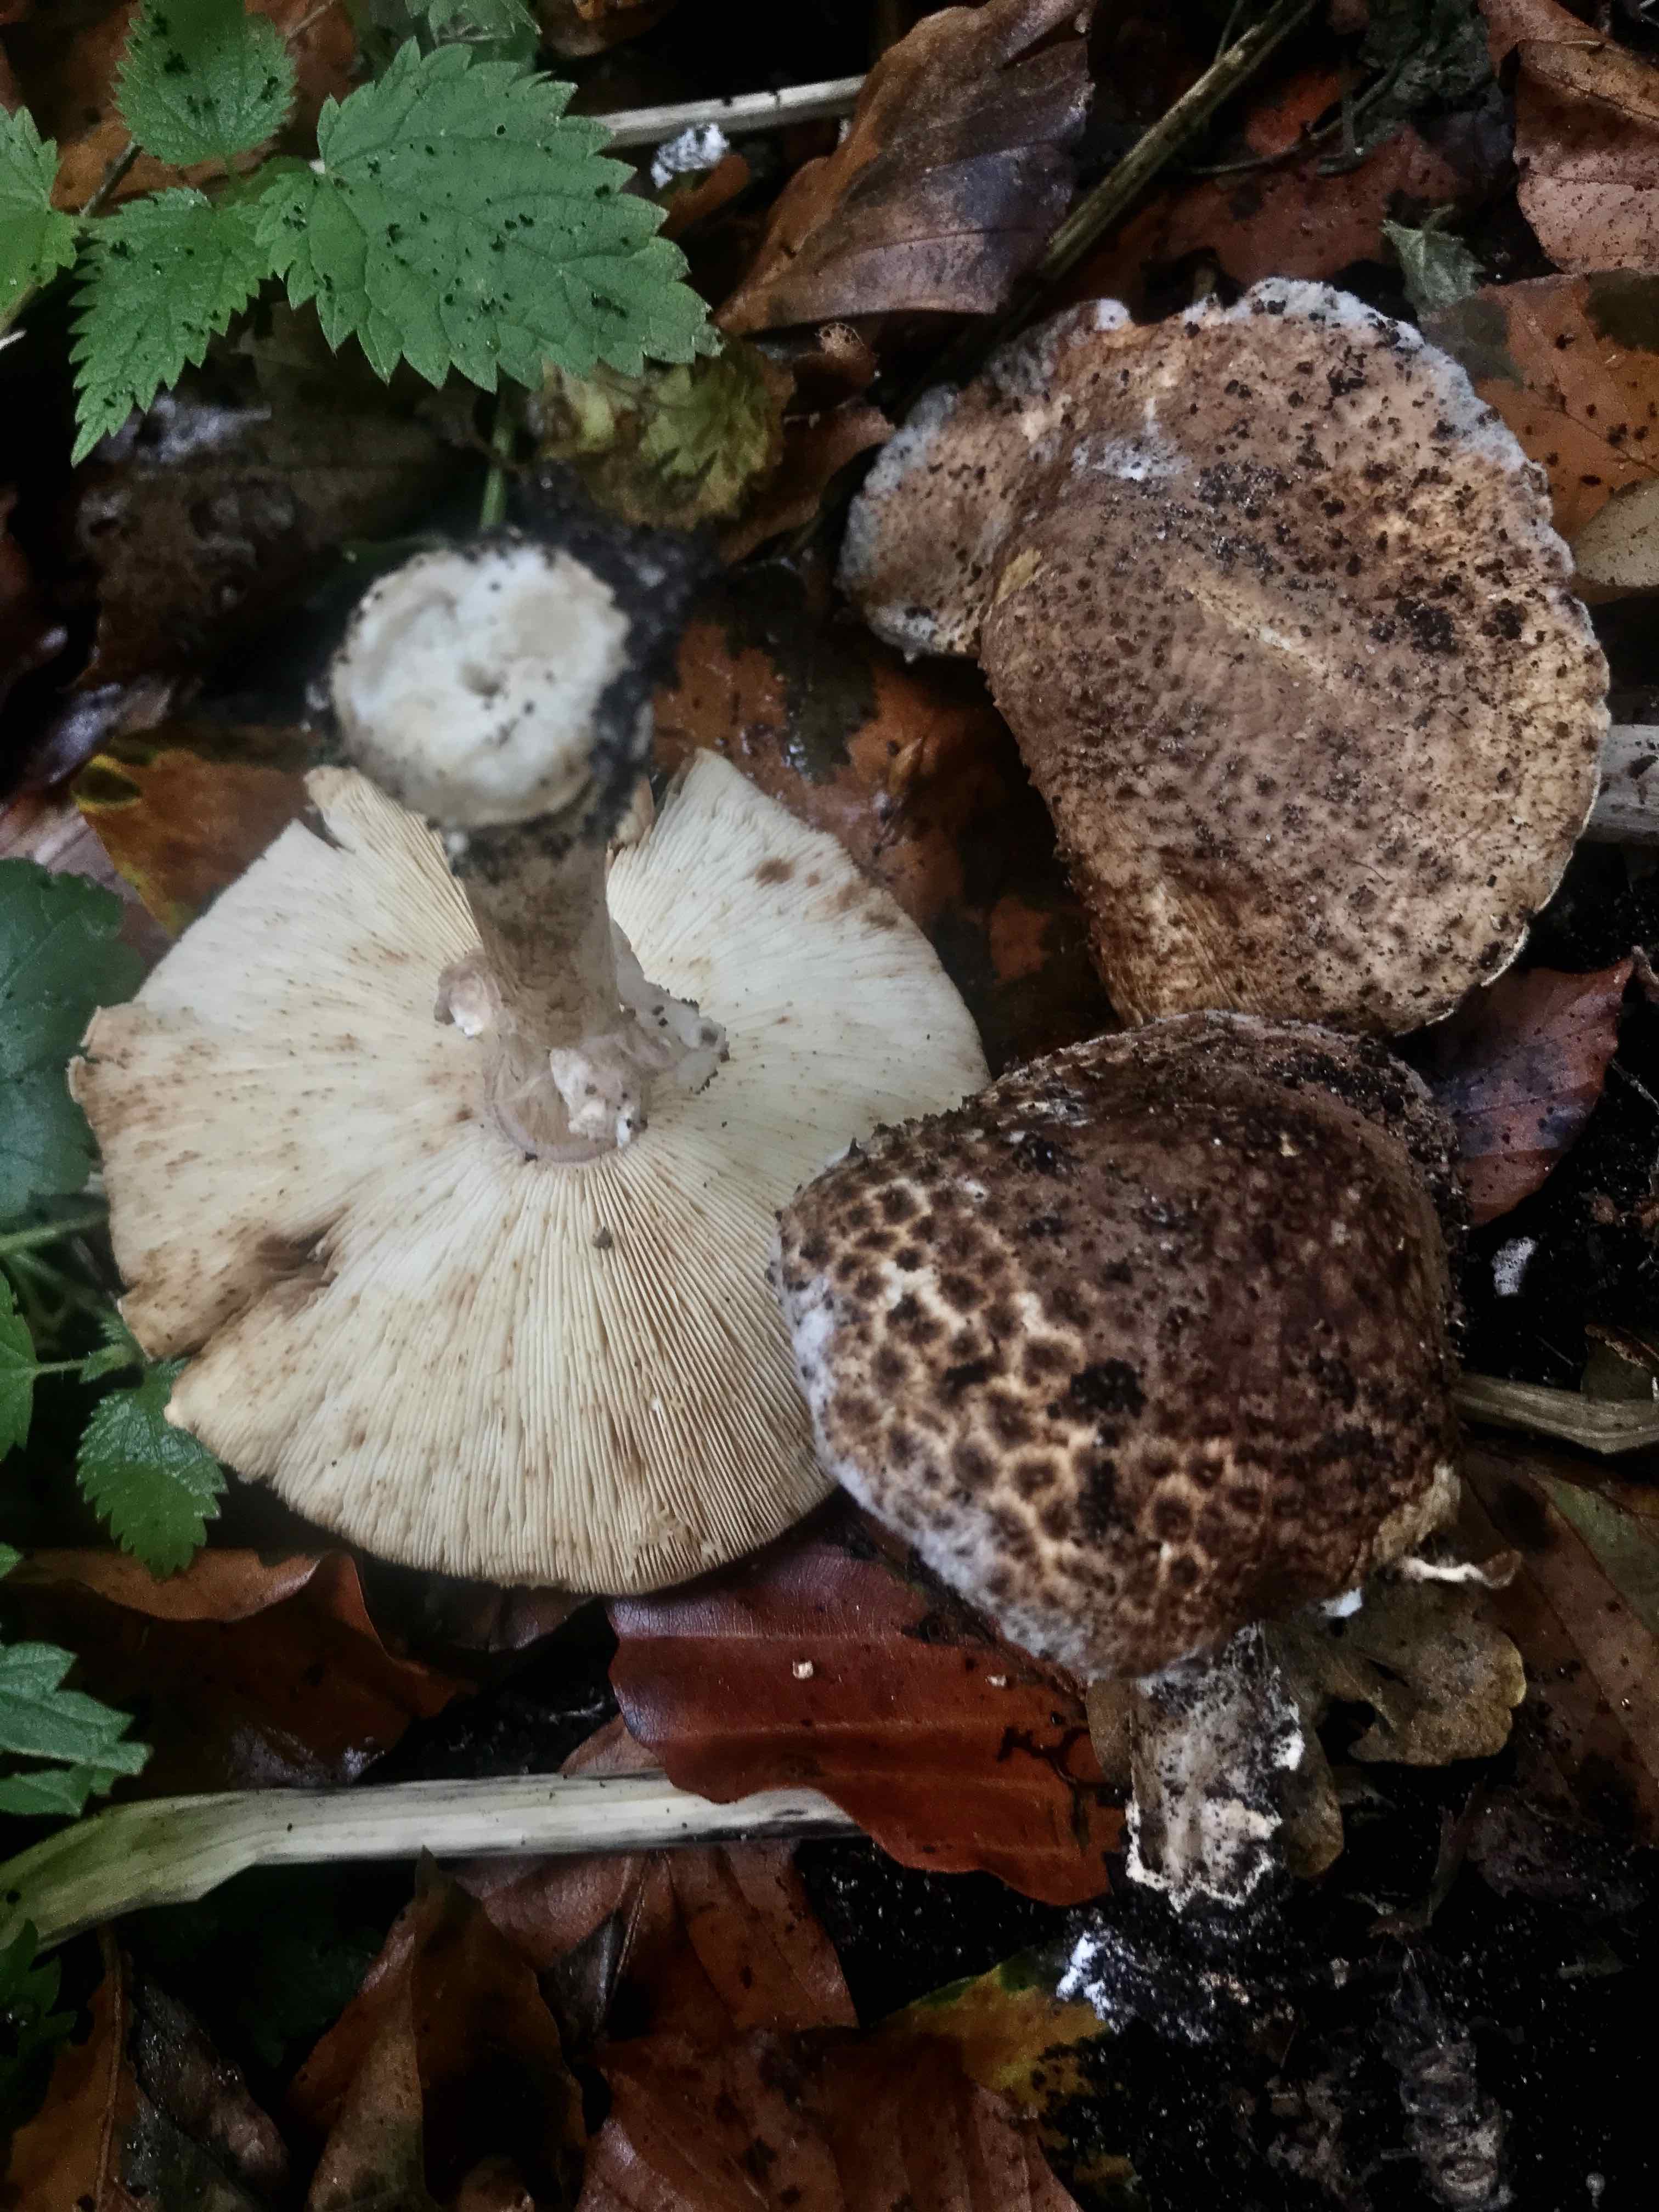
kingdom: Fungi
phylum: Basidiomycota
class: Agaricomycetes
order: Agaricales
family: Agaricaceae
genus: Echinoderma
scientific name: Echinoderma asperum
